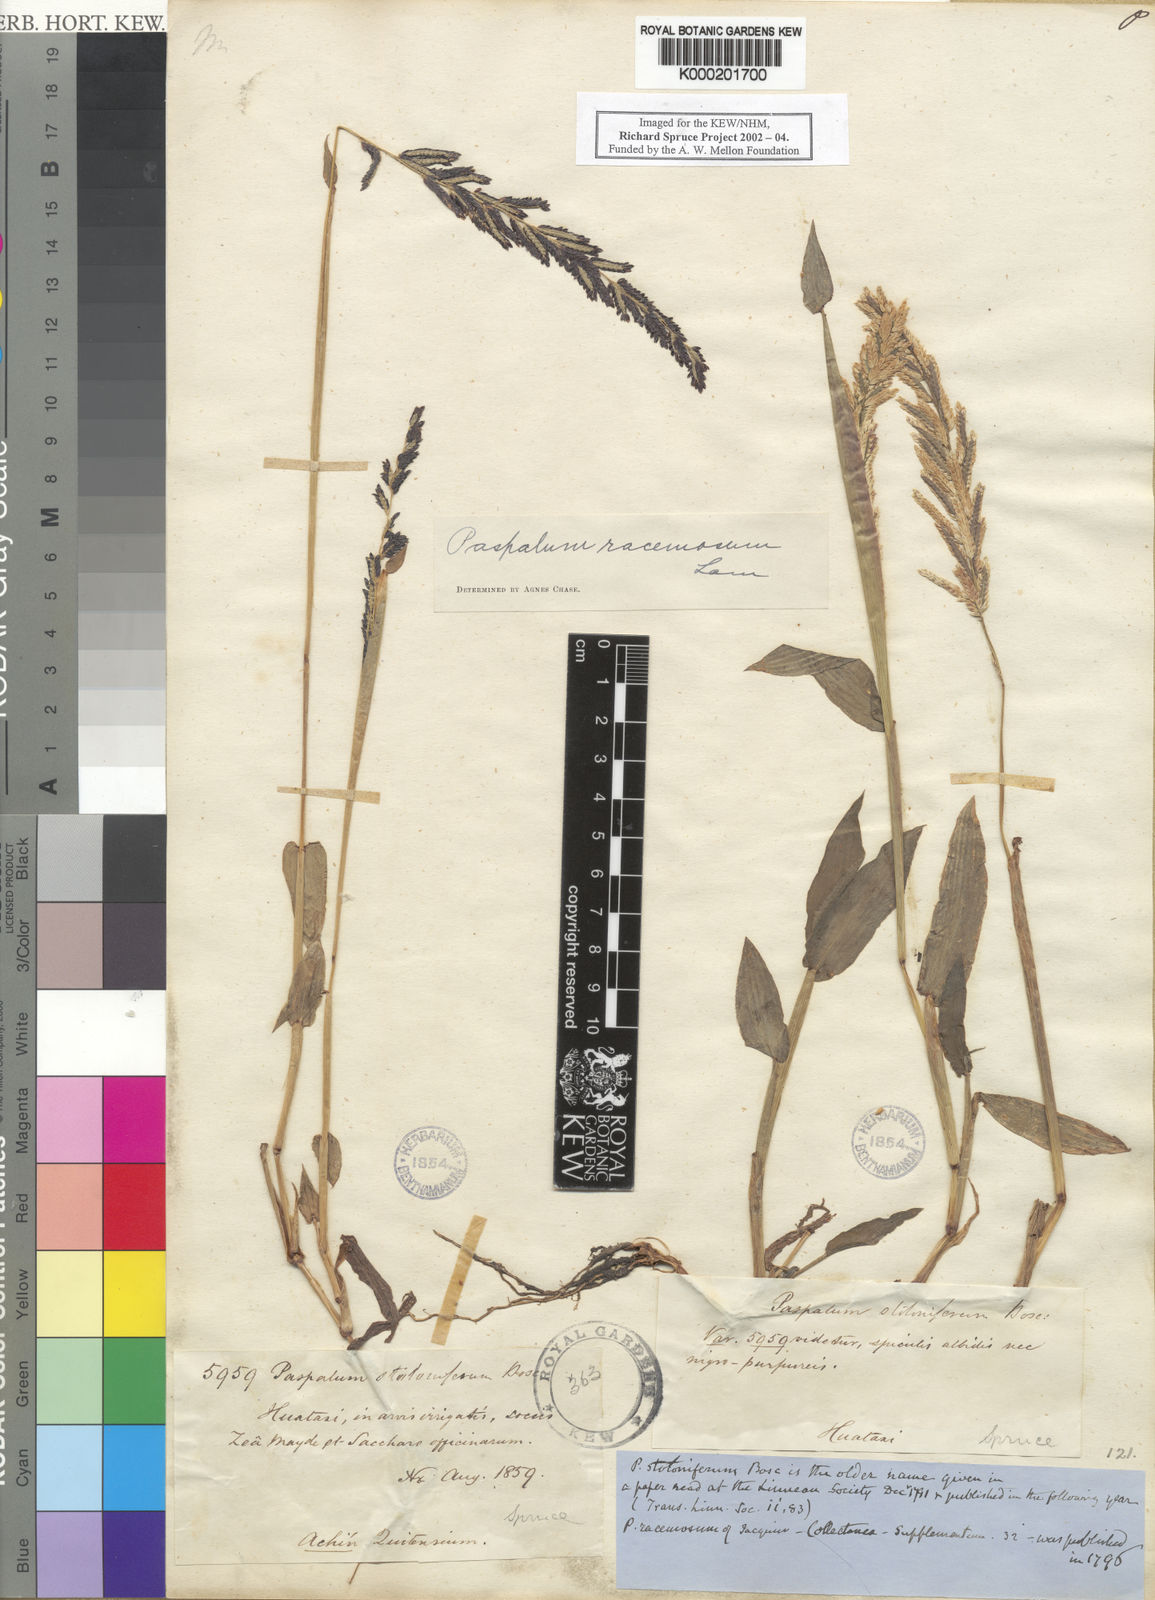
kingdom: Plantae
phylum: Tracheophyta
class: Liliopsida
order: Poales
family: Poaceae
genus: Paspalum
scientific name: Paspalum racemosum
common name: Peruvian paspalum
